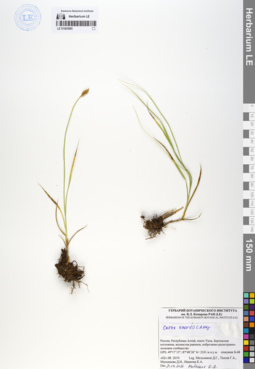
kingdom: Plantae
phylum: Tracheophyta
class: Liliopsida
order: Poales
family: Cyperaceae
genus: Carex
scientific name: Carex enervis
